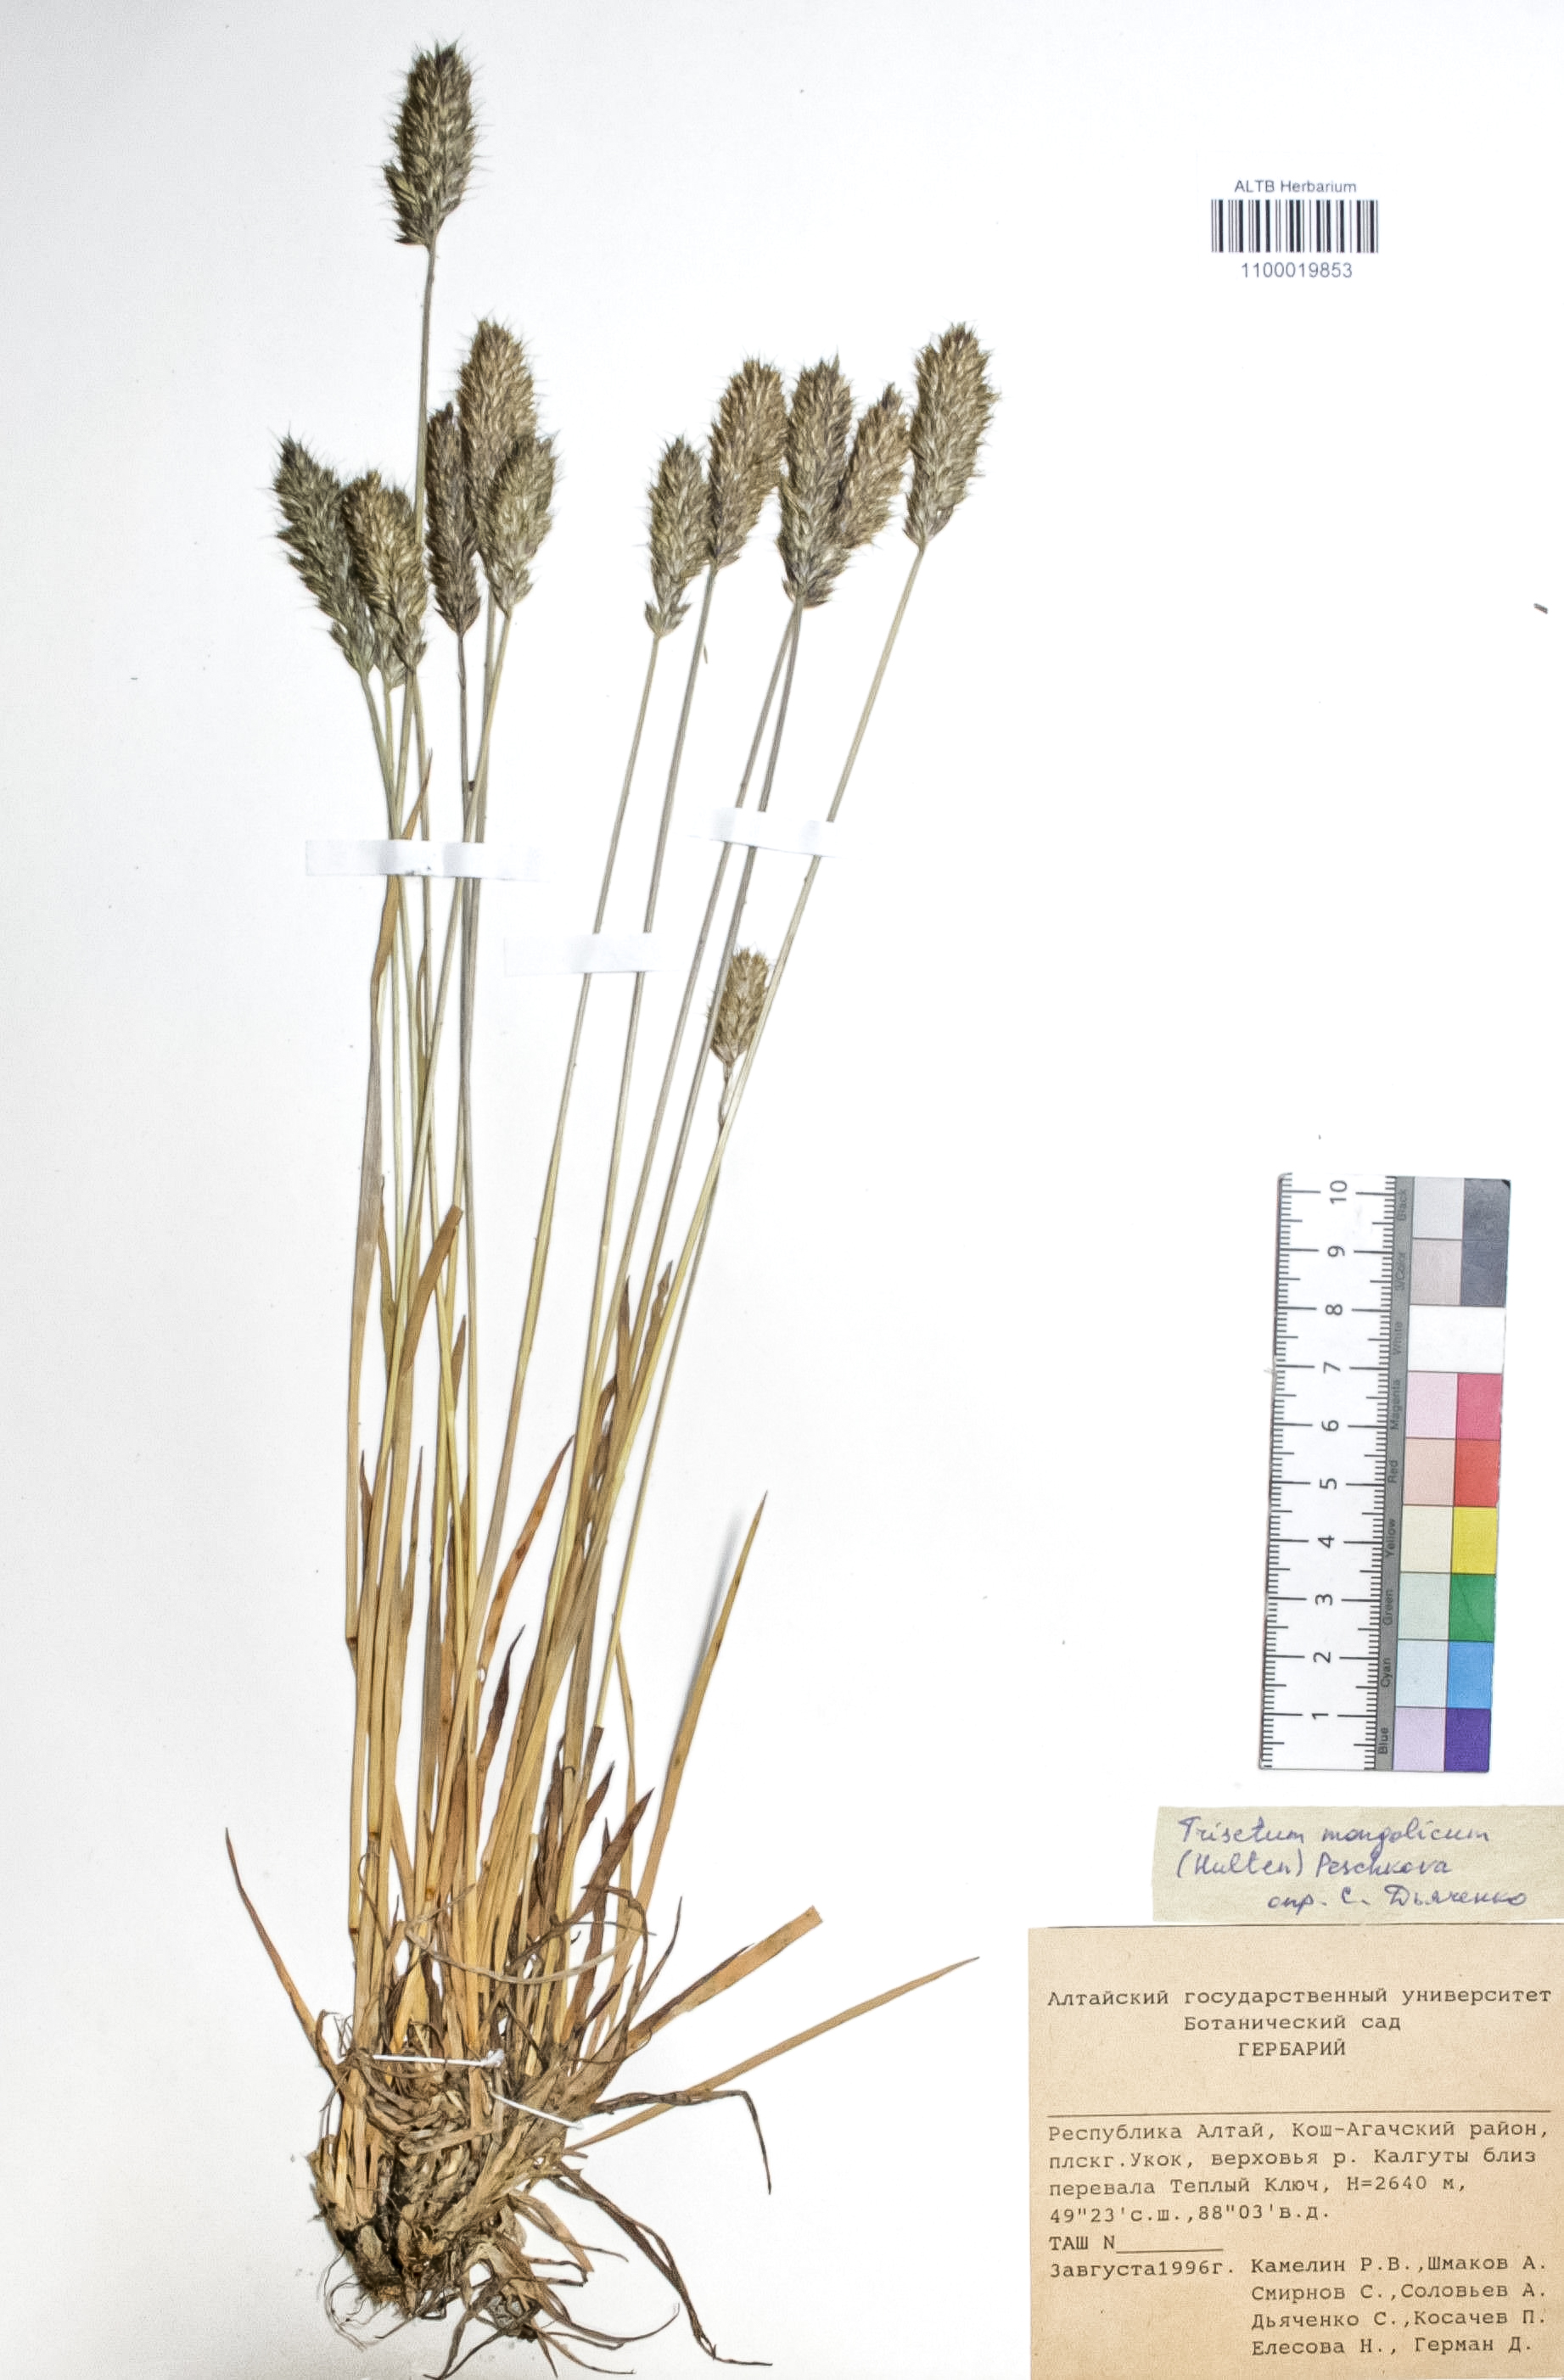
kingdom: Plantae
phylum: Tracheophyta
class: Liliopsida
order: Poales
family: Poaceae
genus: Koeleria
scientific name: Koeleria spicata
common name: Mountain trisetum
